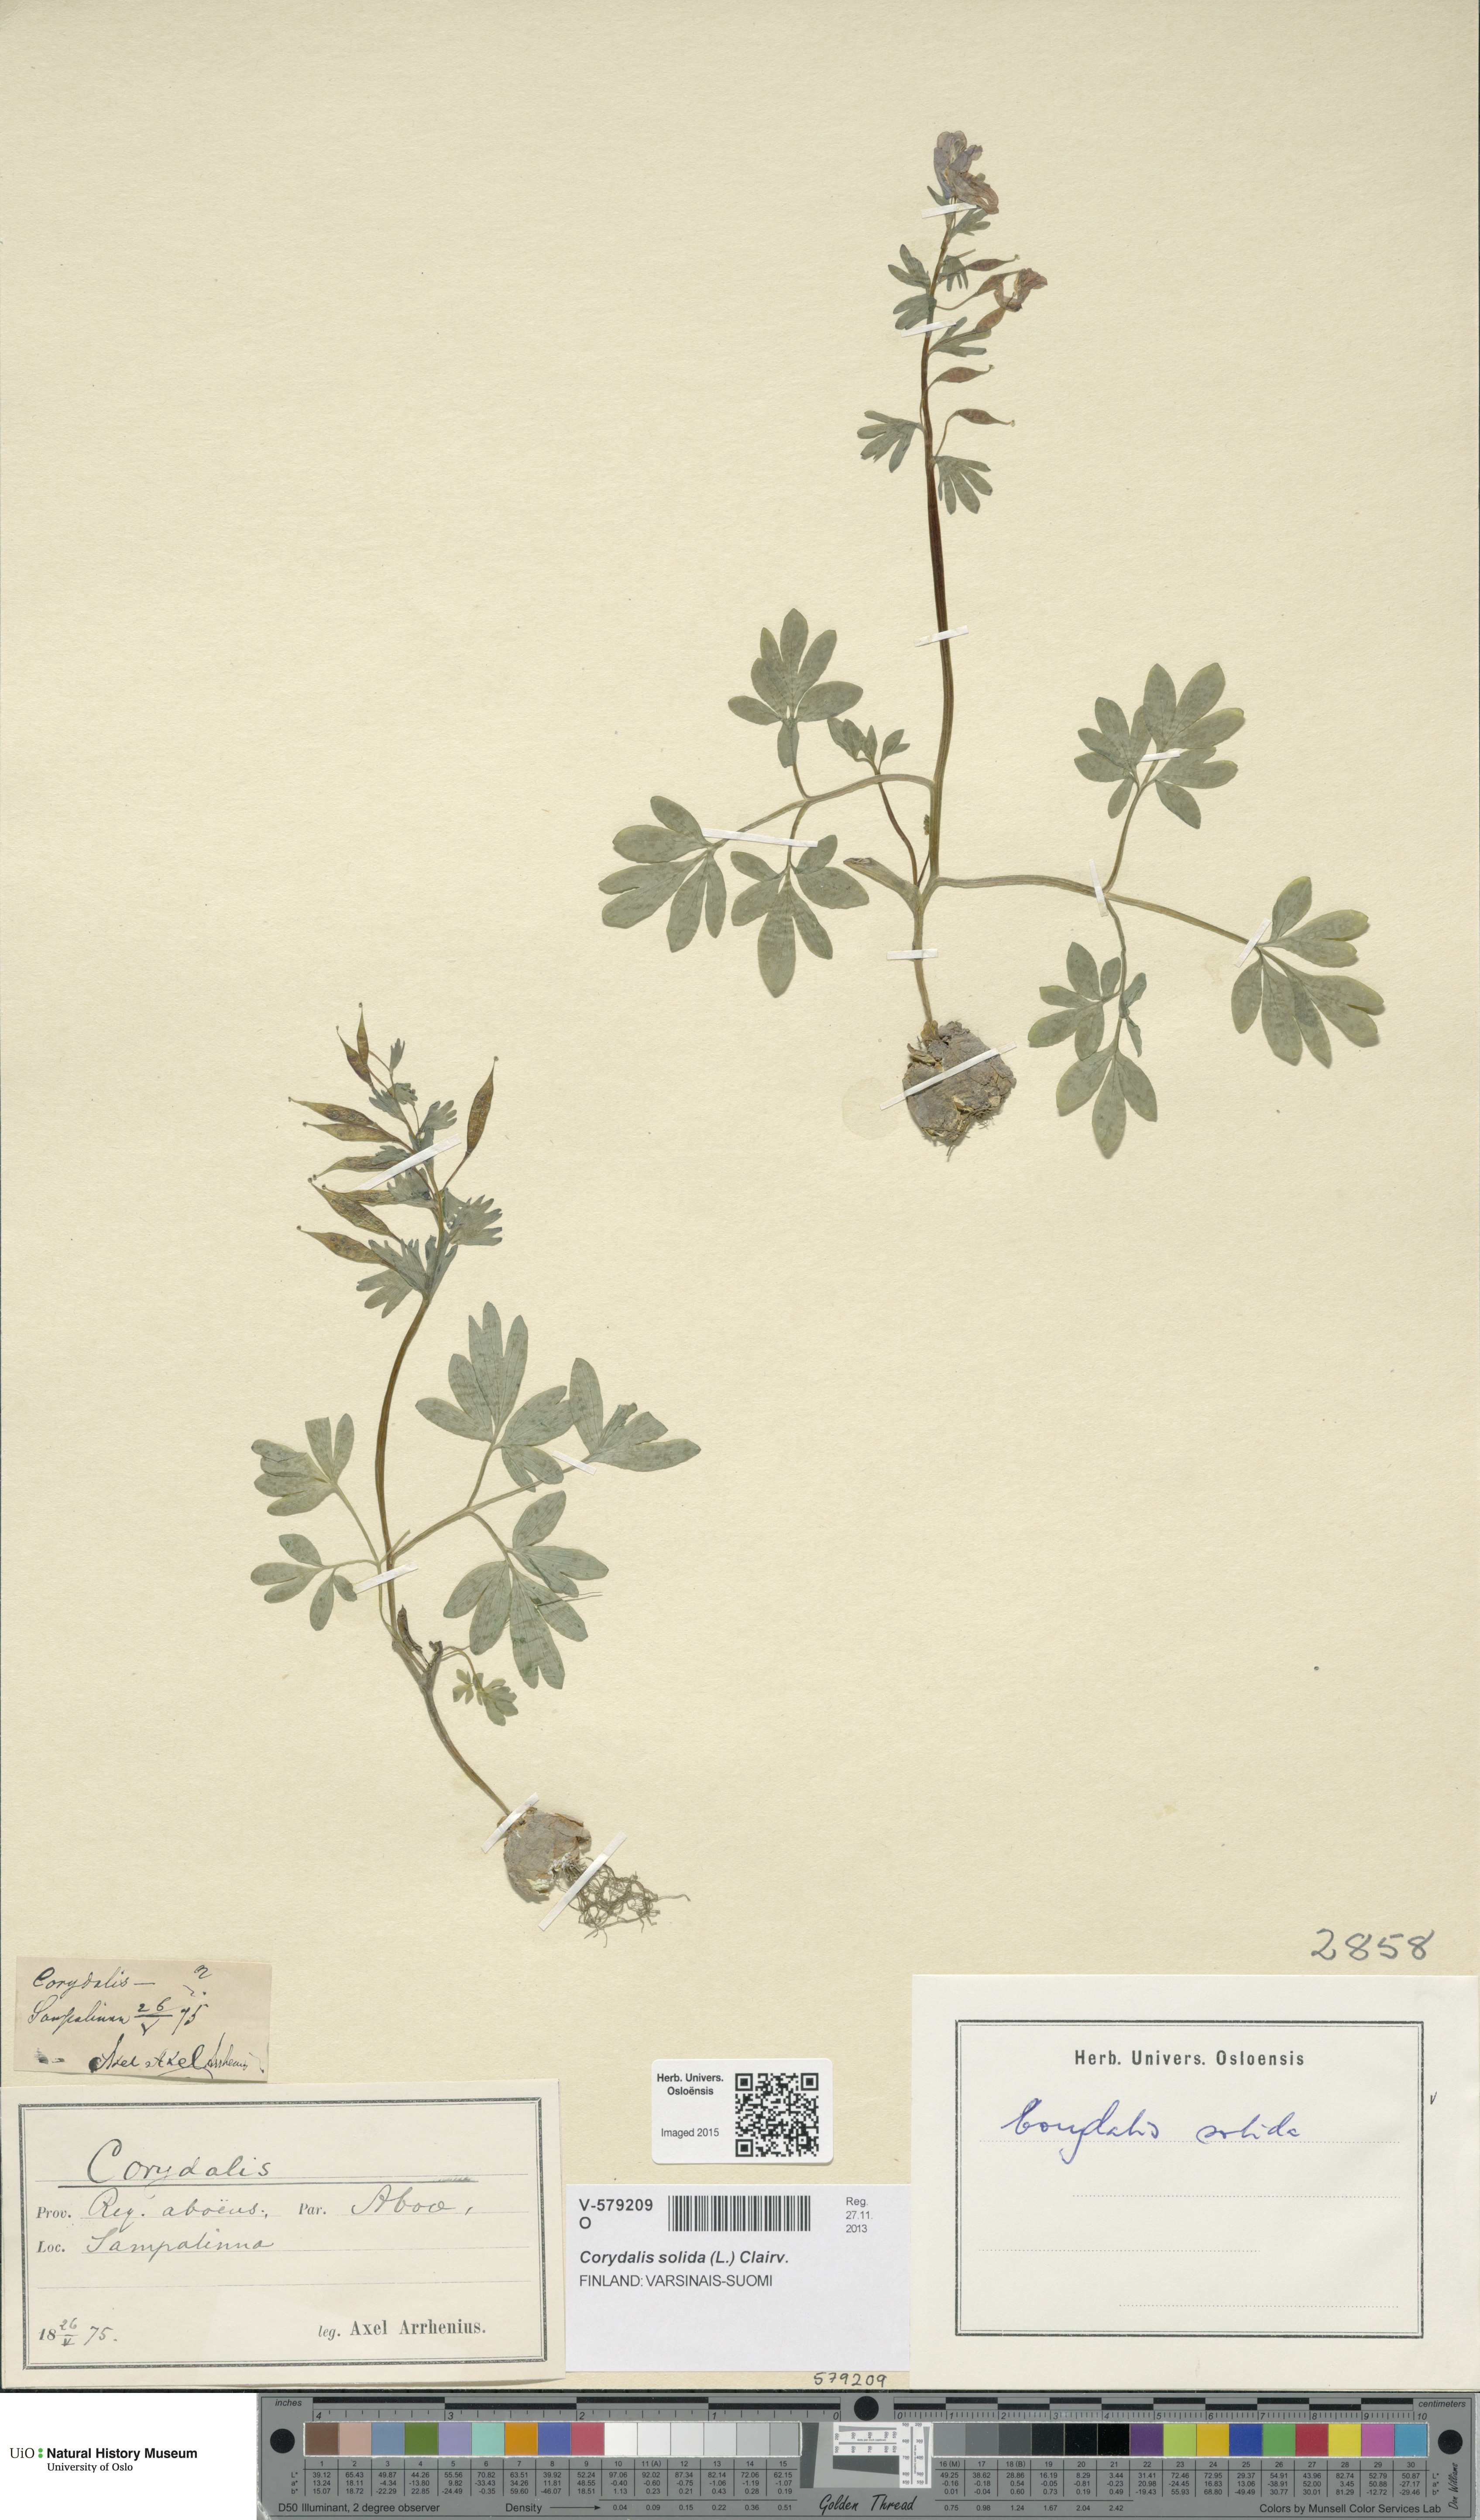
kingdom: Plantae
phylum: Tracheophyta
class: Magnoliopsida
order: Ranunculales
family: Papaveraceae
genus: Corydalis
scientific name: Corydalis solida
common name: Bird-in-a-bush
